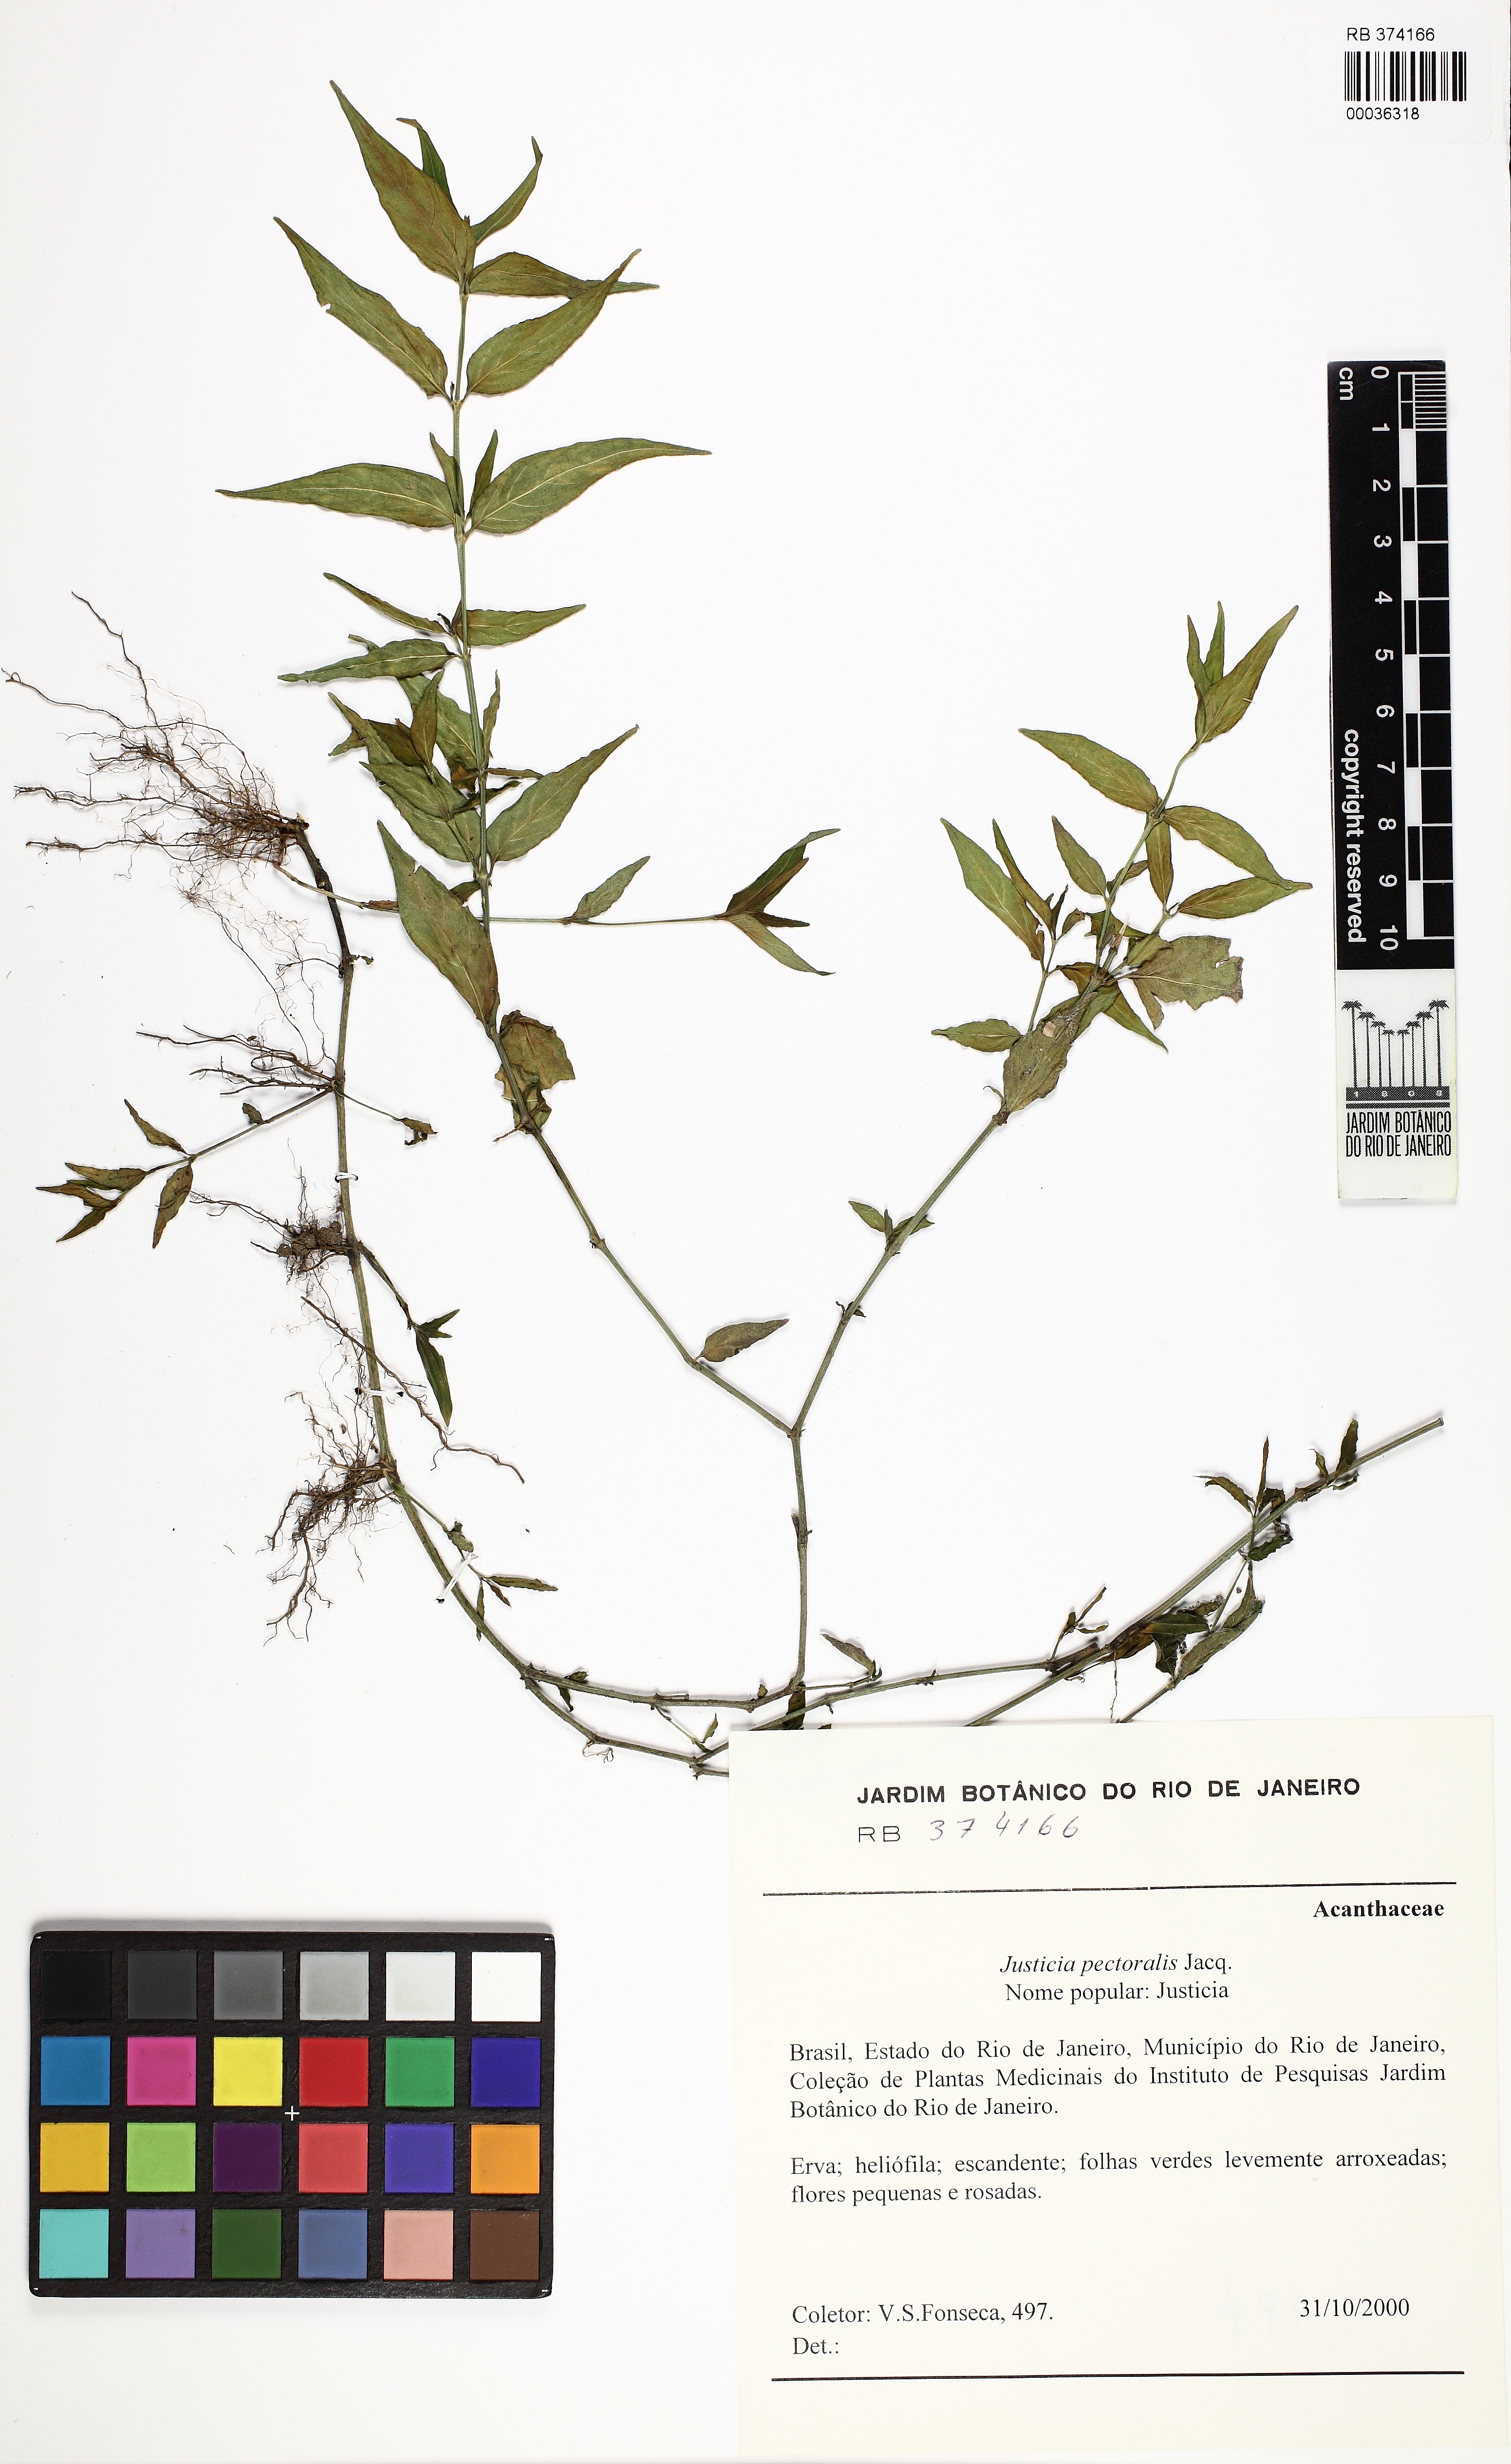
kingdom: Plantae
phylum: Tracheophyta
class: Magnoliopsida
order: Lamiales
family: Acanthaceae
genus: Dianthera
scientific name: Dianthera pectoralis
